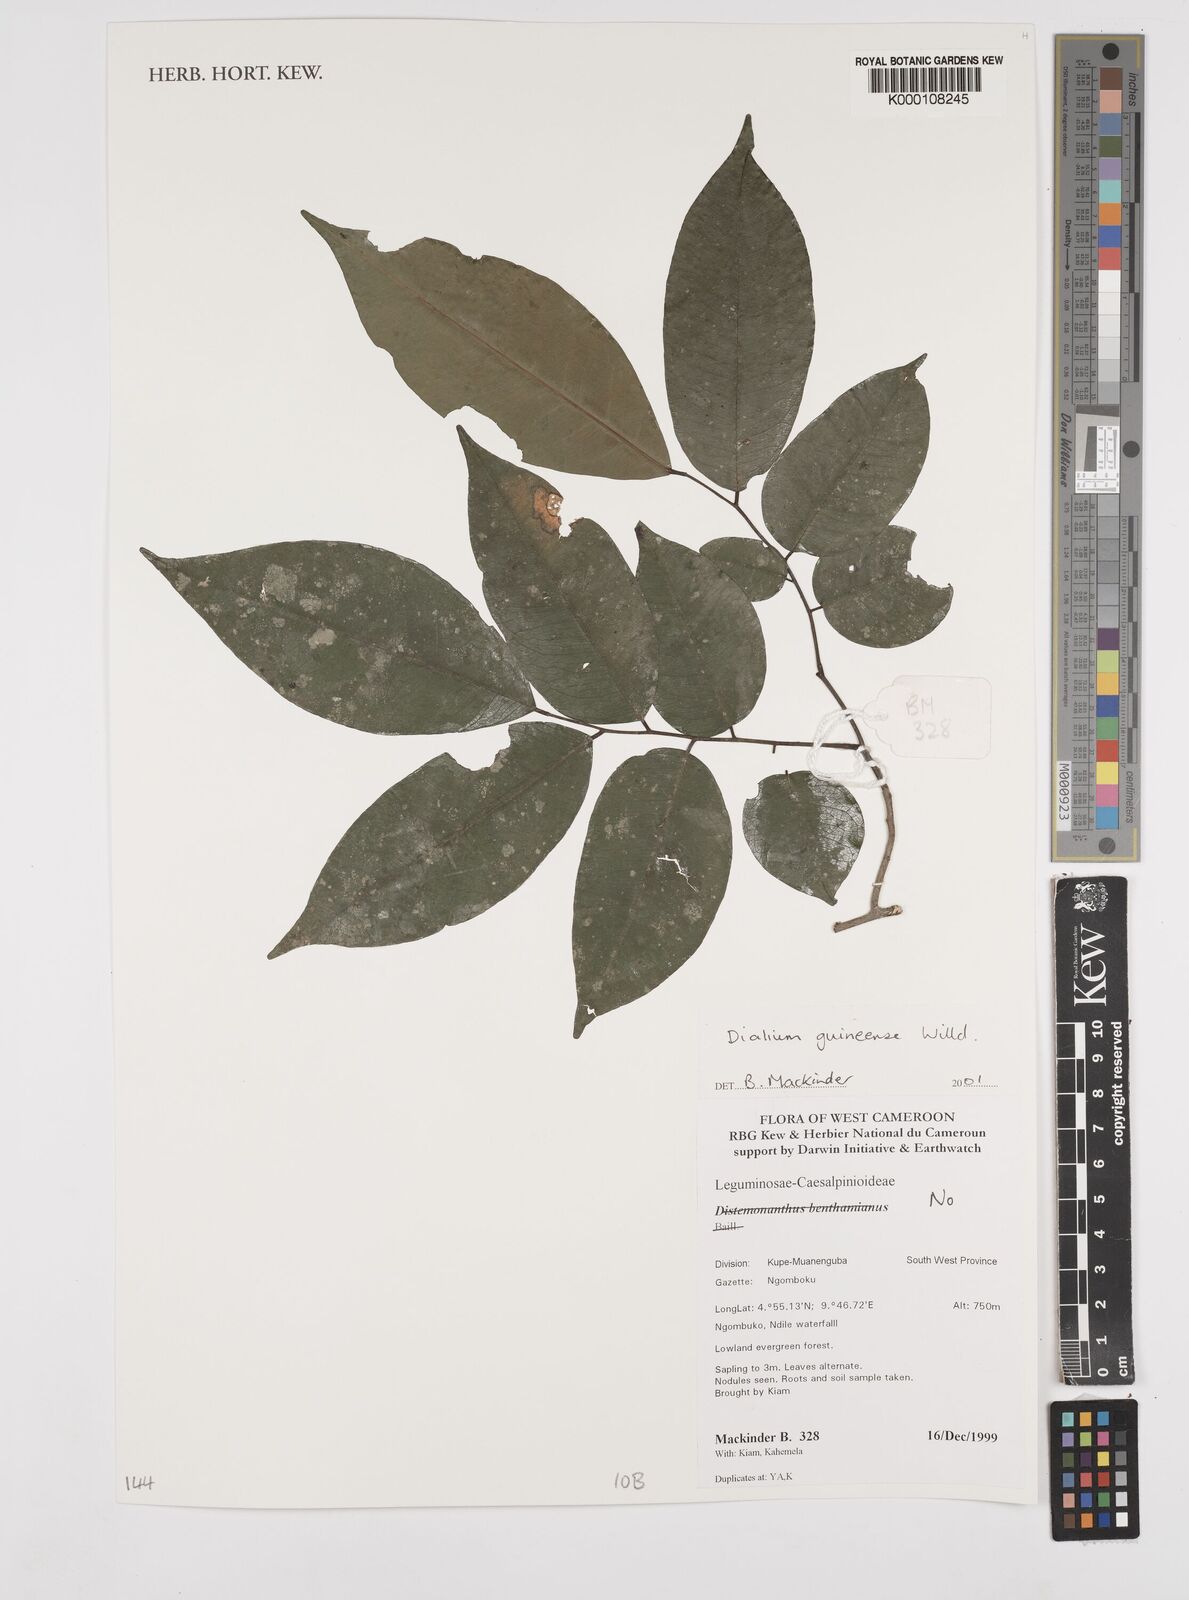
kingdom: Plantae
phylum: Tracheophyta
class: Magnoliopsida
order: Fabales
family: Fabaceae
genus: Dialium
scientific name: Dialium guineense
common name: Sierra leone-tamarind
